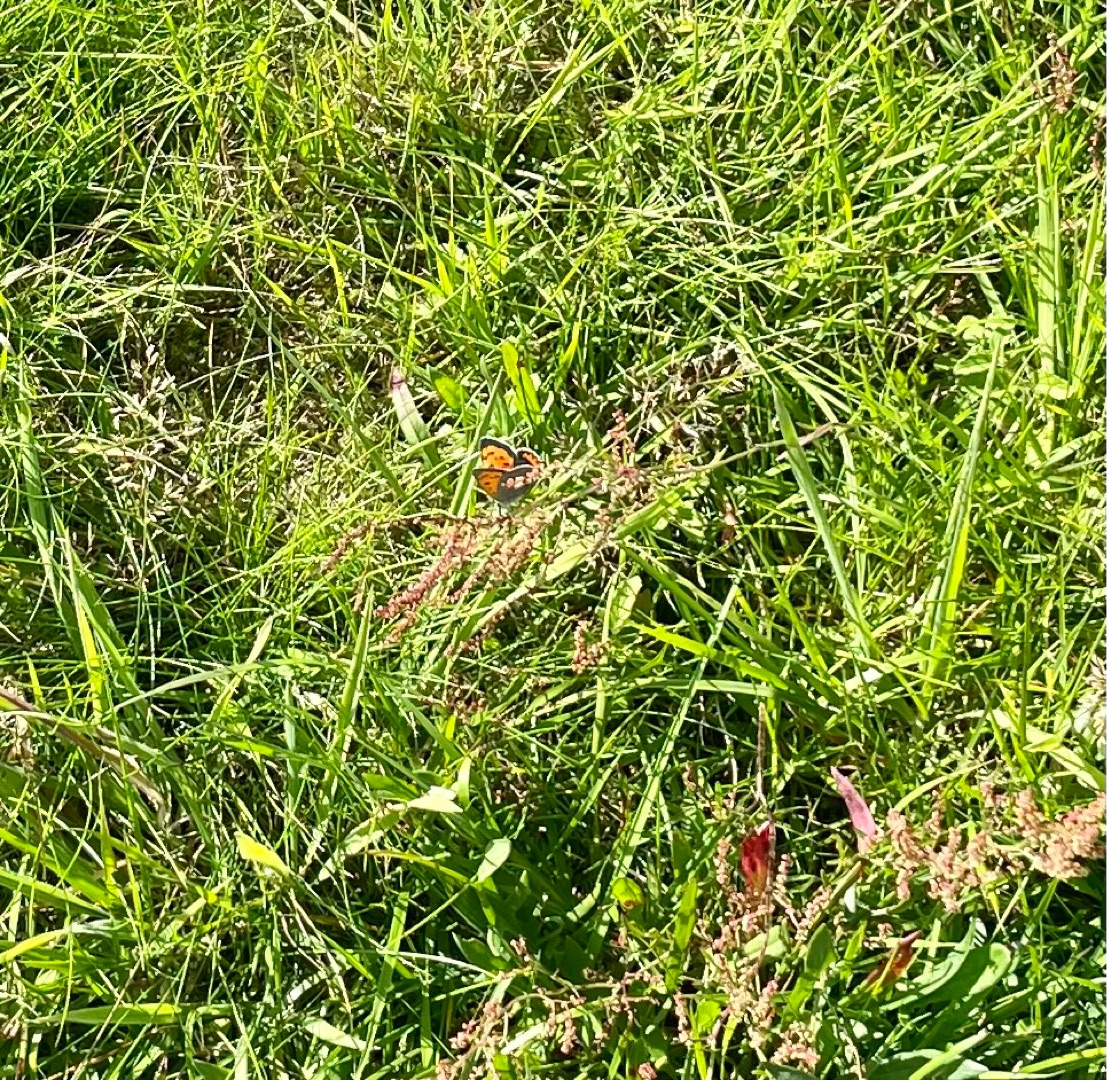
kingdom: Animalia
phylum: Arthropoda
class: Insecta
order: Lepidoptera
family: Lycaenidae
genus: Lycaena
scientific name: Lycaena phlaeas
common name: Lille ildfugl
